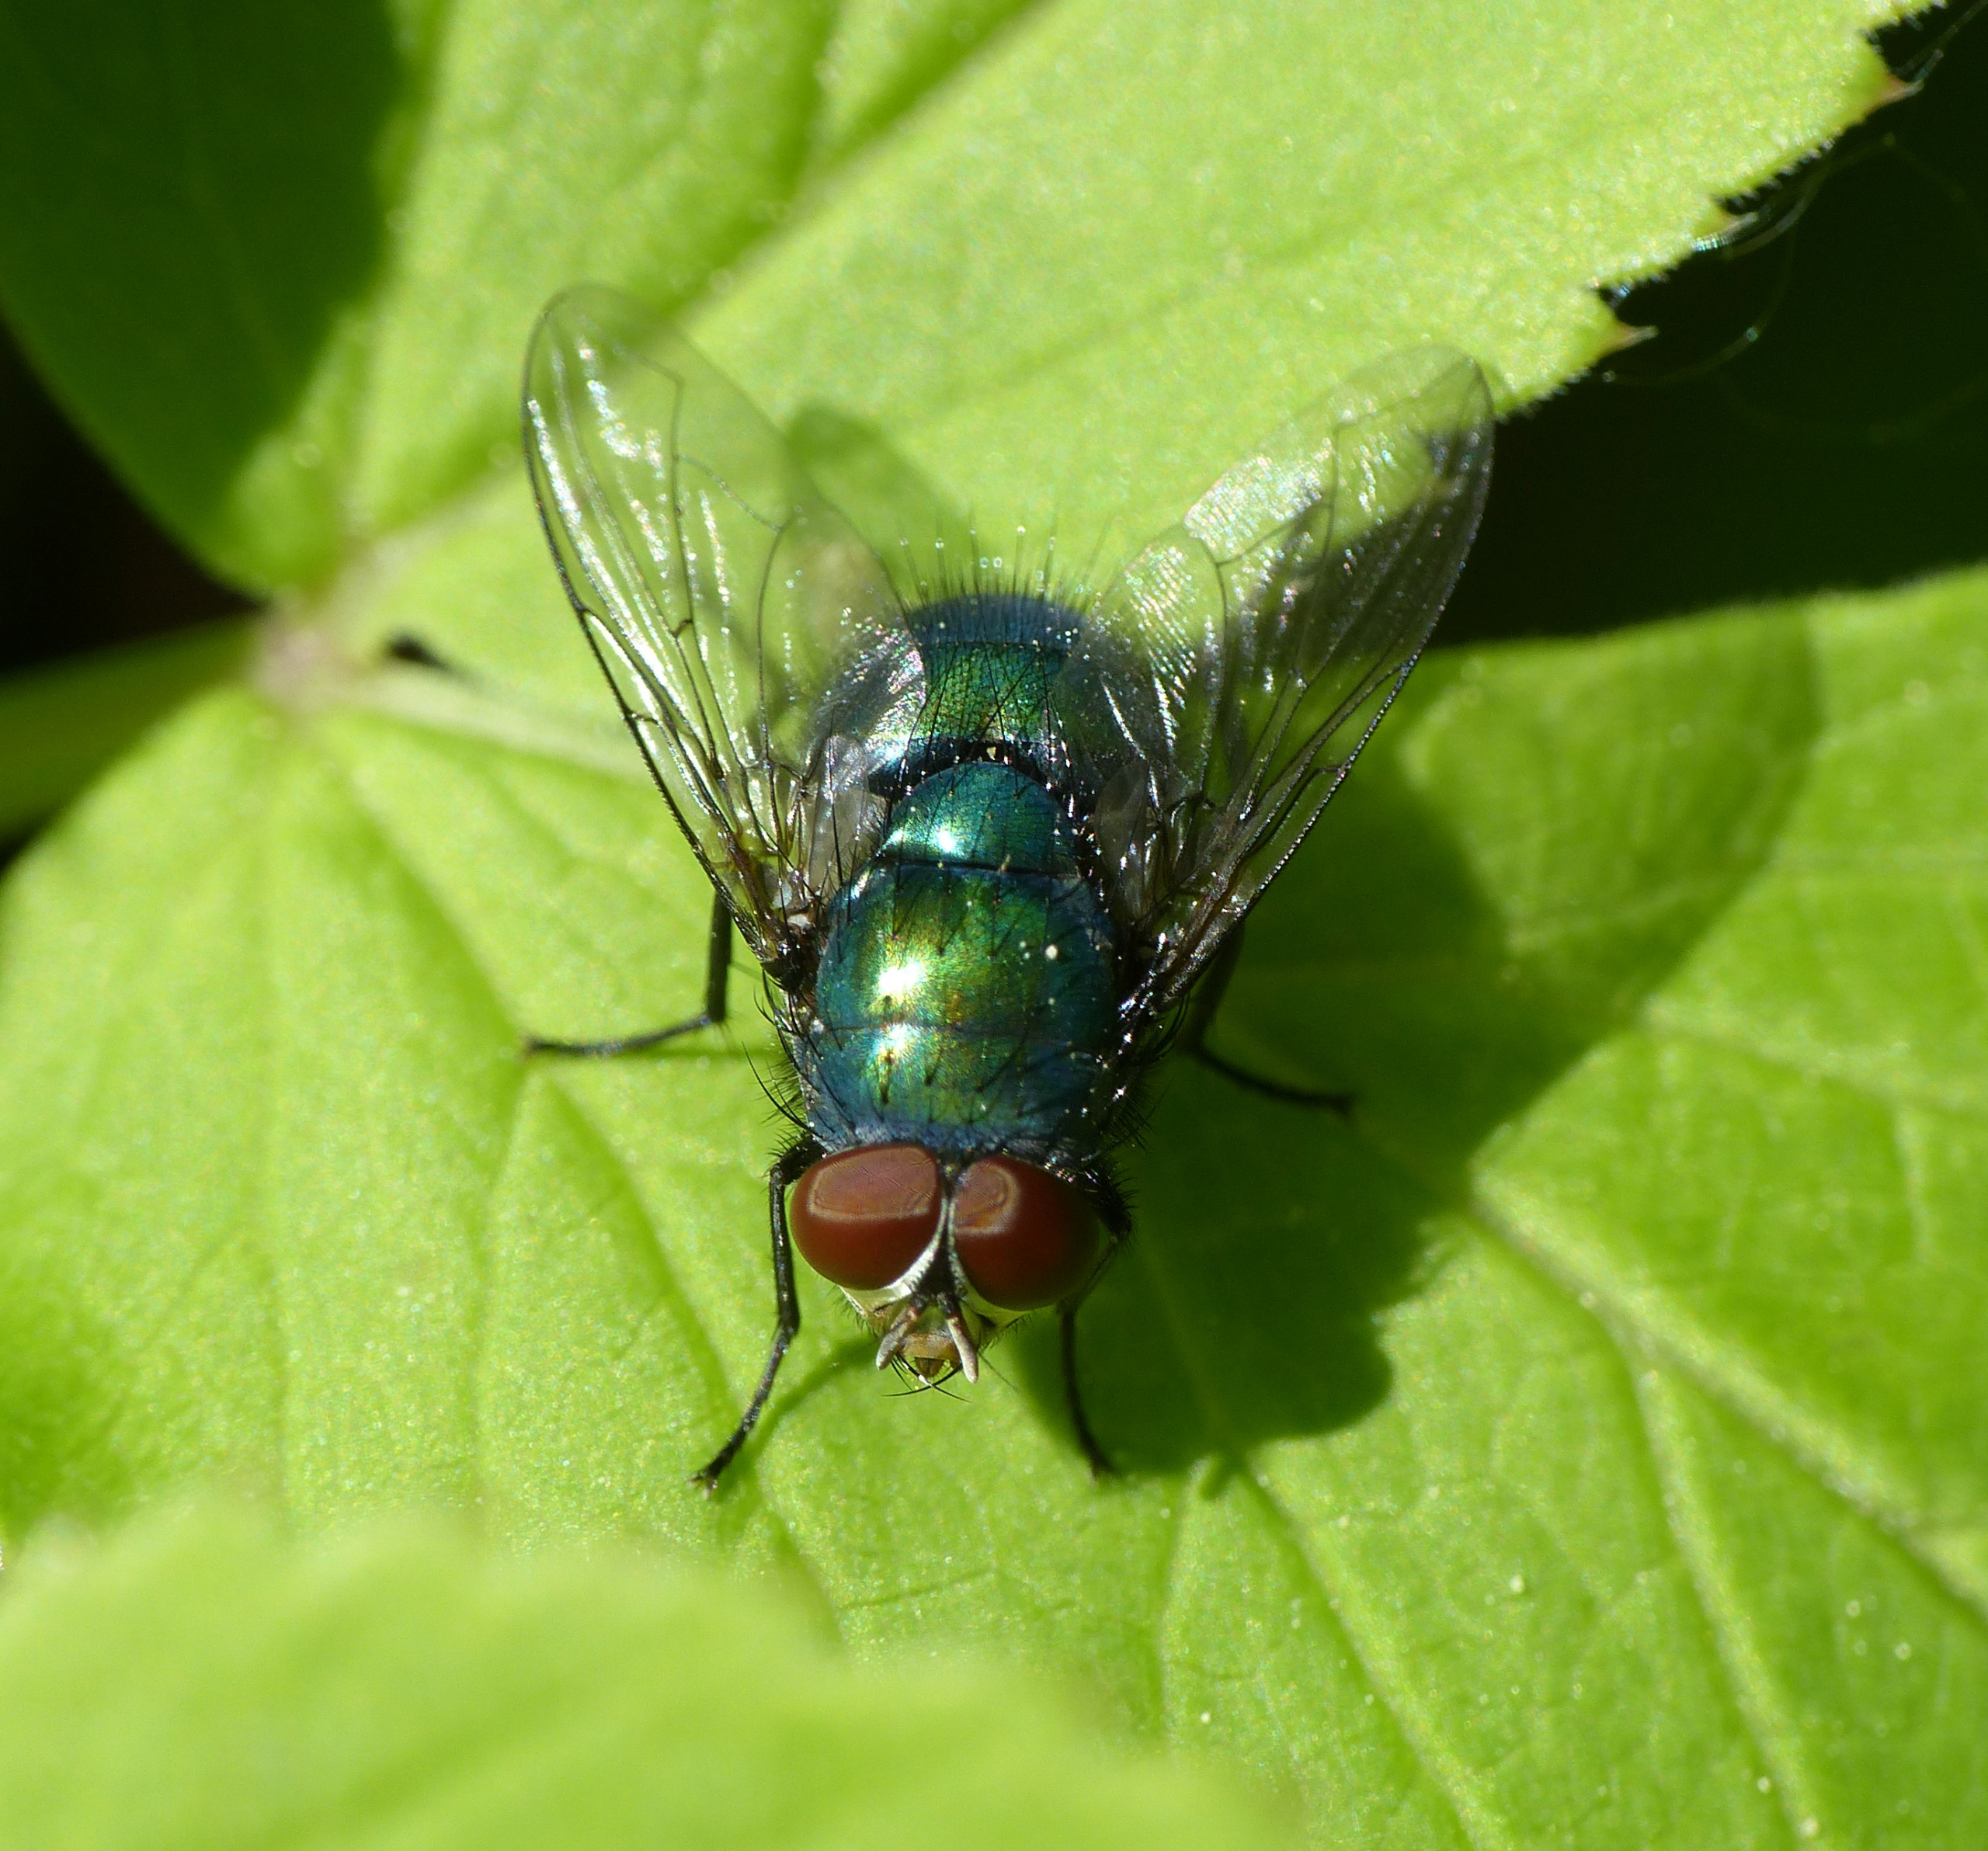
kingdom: Animalia
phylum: Arthropoda
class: Insecta
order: Diptera
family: Calliphoridae
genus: Lucilia
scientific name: Lucilia caesar
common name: Almindelig guldflue
